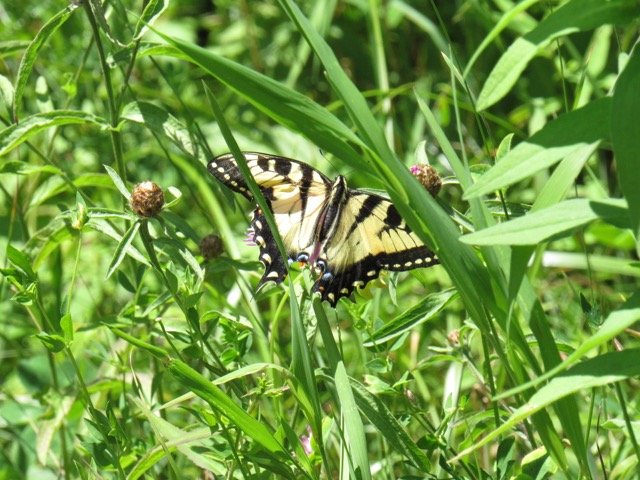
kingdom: Animalia
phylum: Arthropoda
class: Insecta
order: Lepidoptera
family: Papilionidae
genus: Pterourus
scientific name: Pterourus
